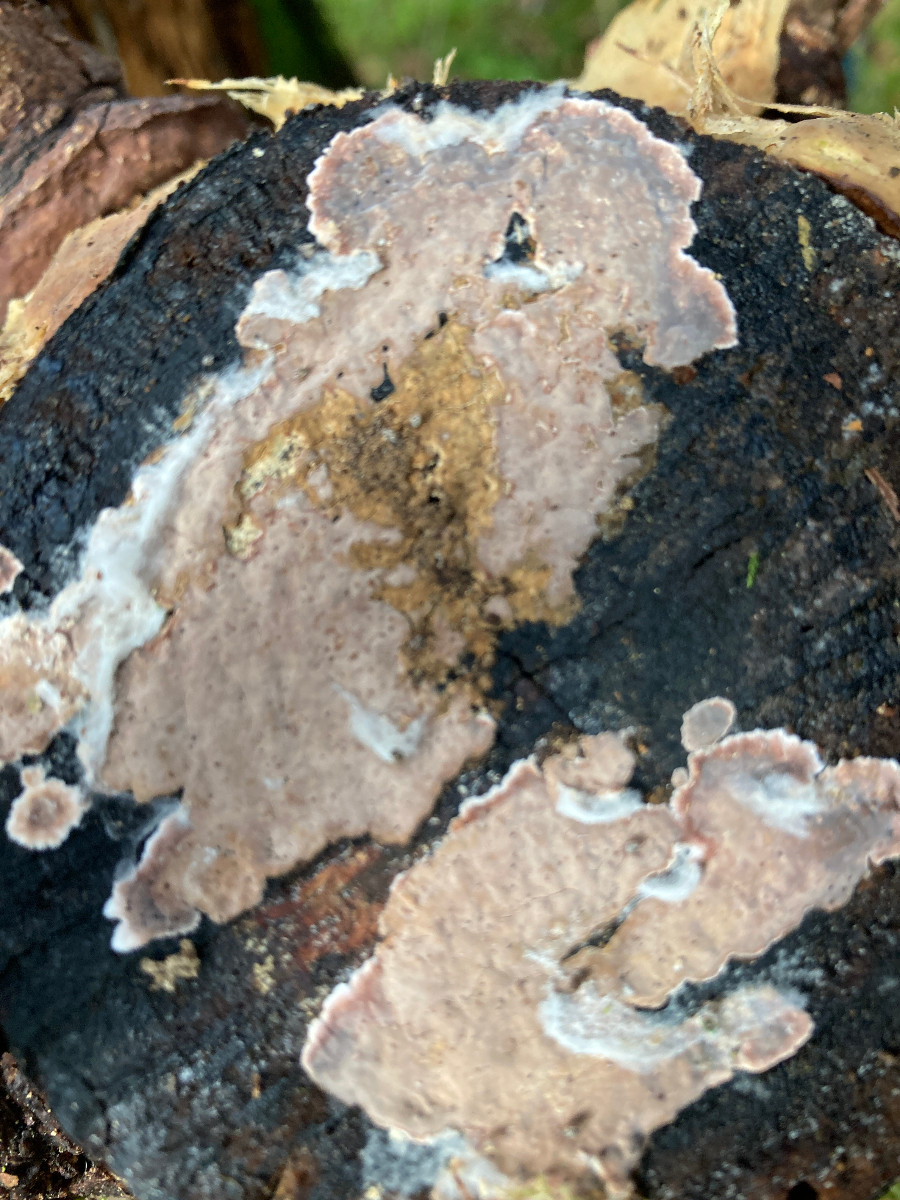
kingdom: Fungi
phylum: Basidiomycota
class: Agaricomycetes
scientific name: Agaricomycetes
